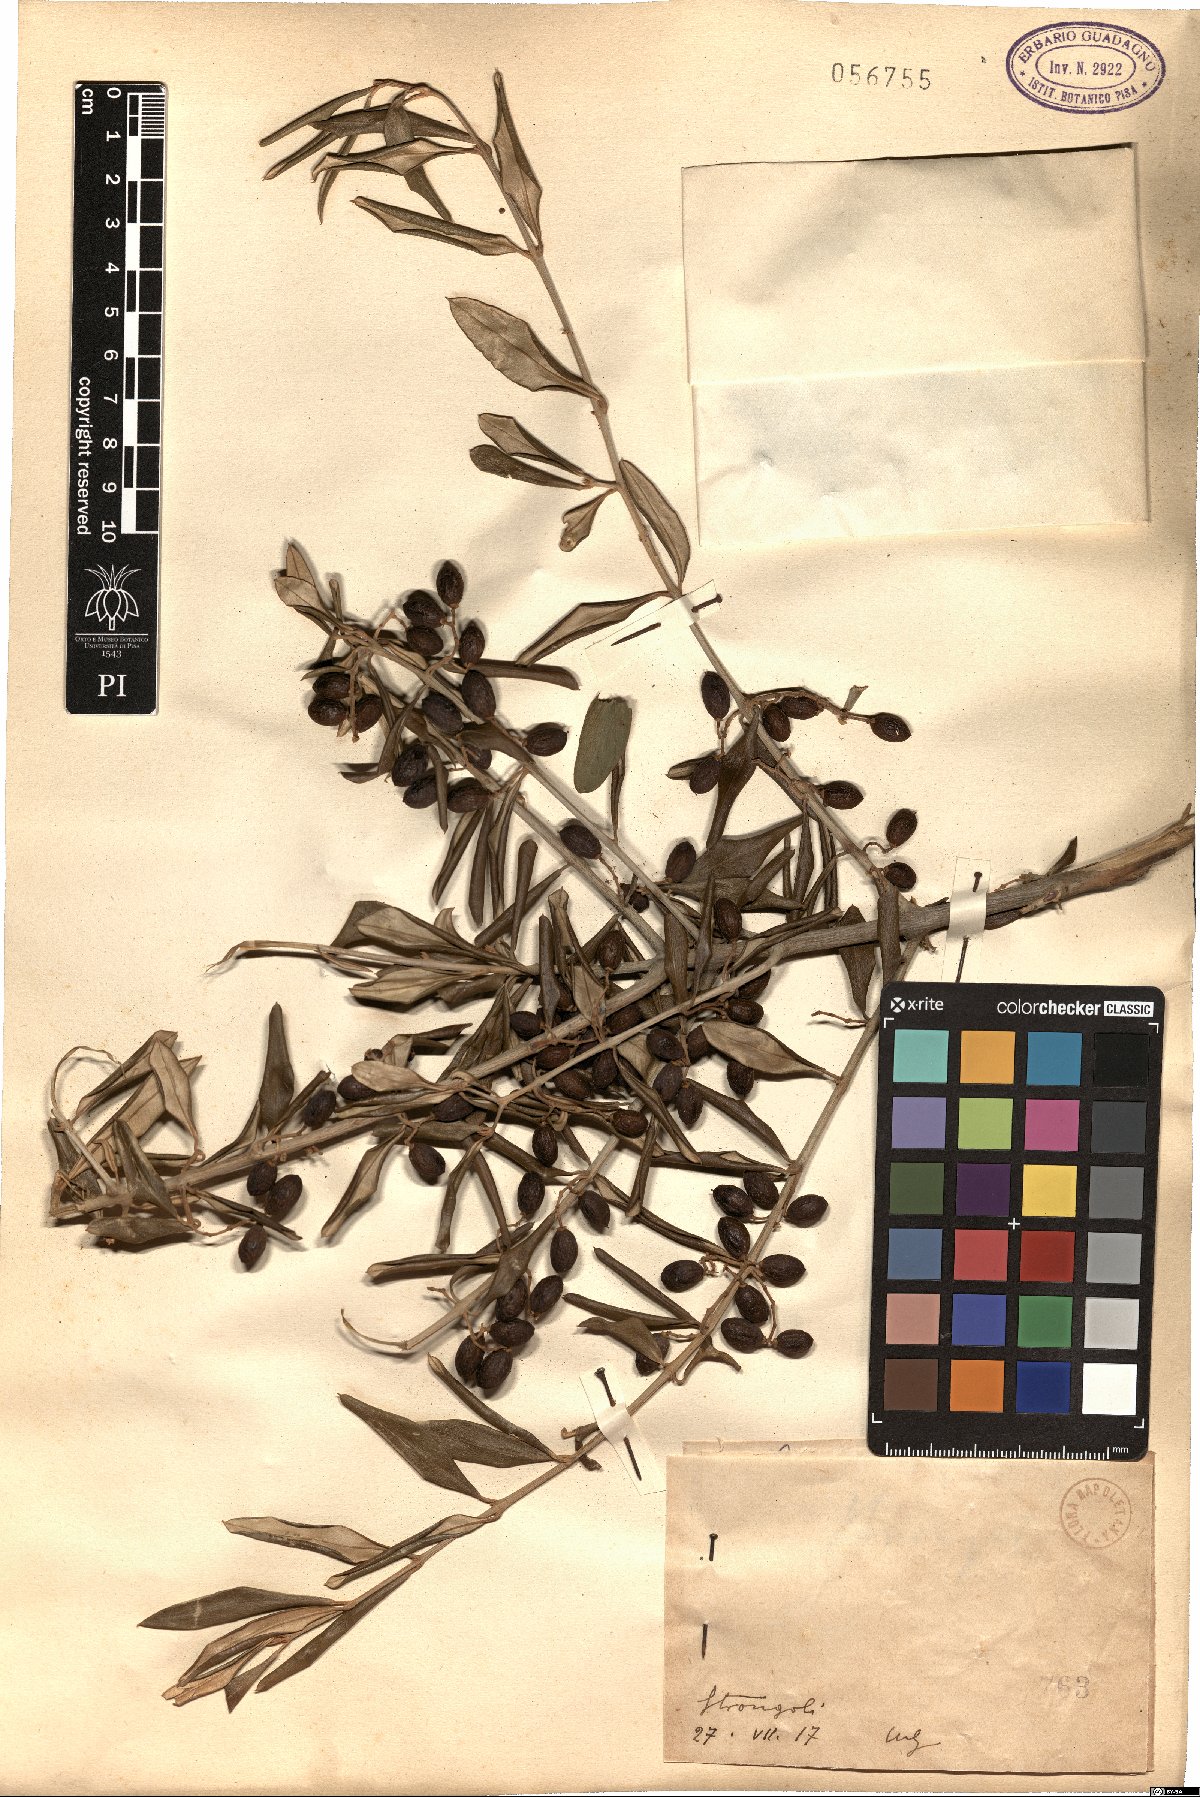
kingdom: Plantae
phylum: Tracheophyta
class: Magnoliopsida
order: Lamiales
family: Oleaceae
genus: Olea
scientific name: Olea
